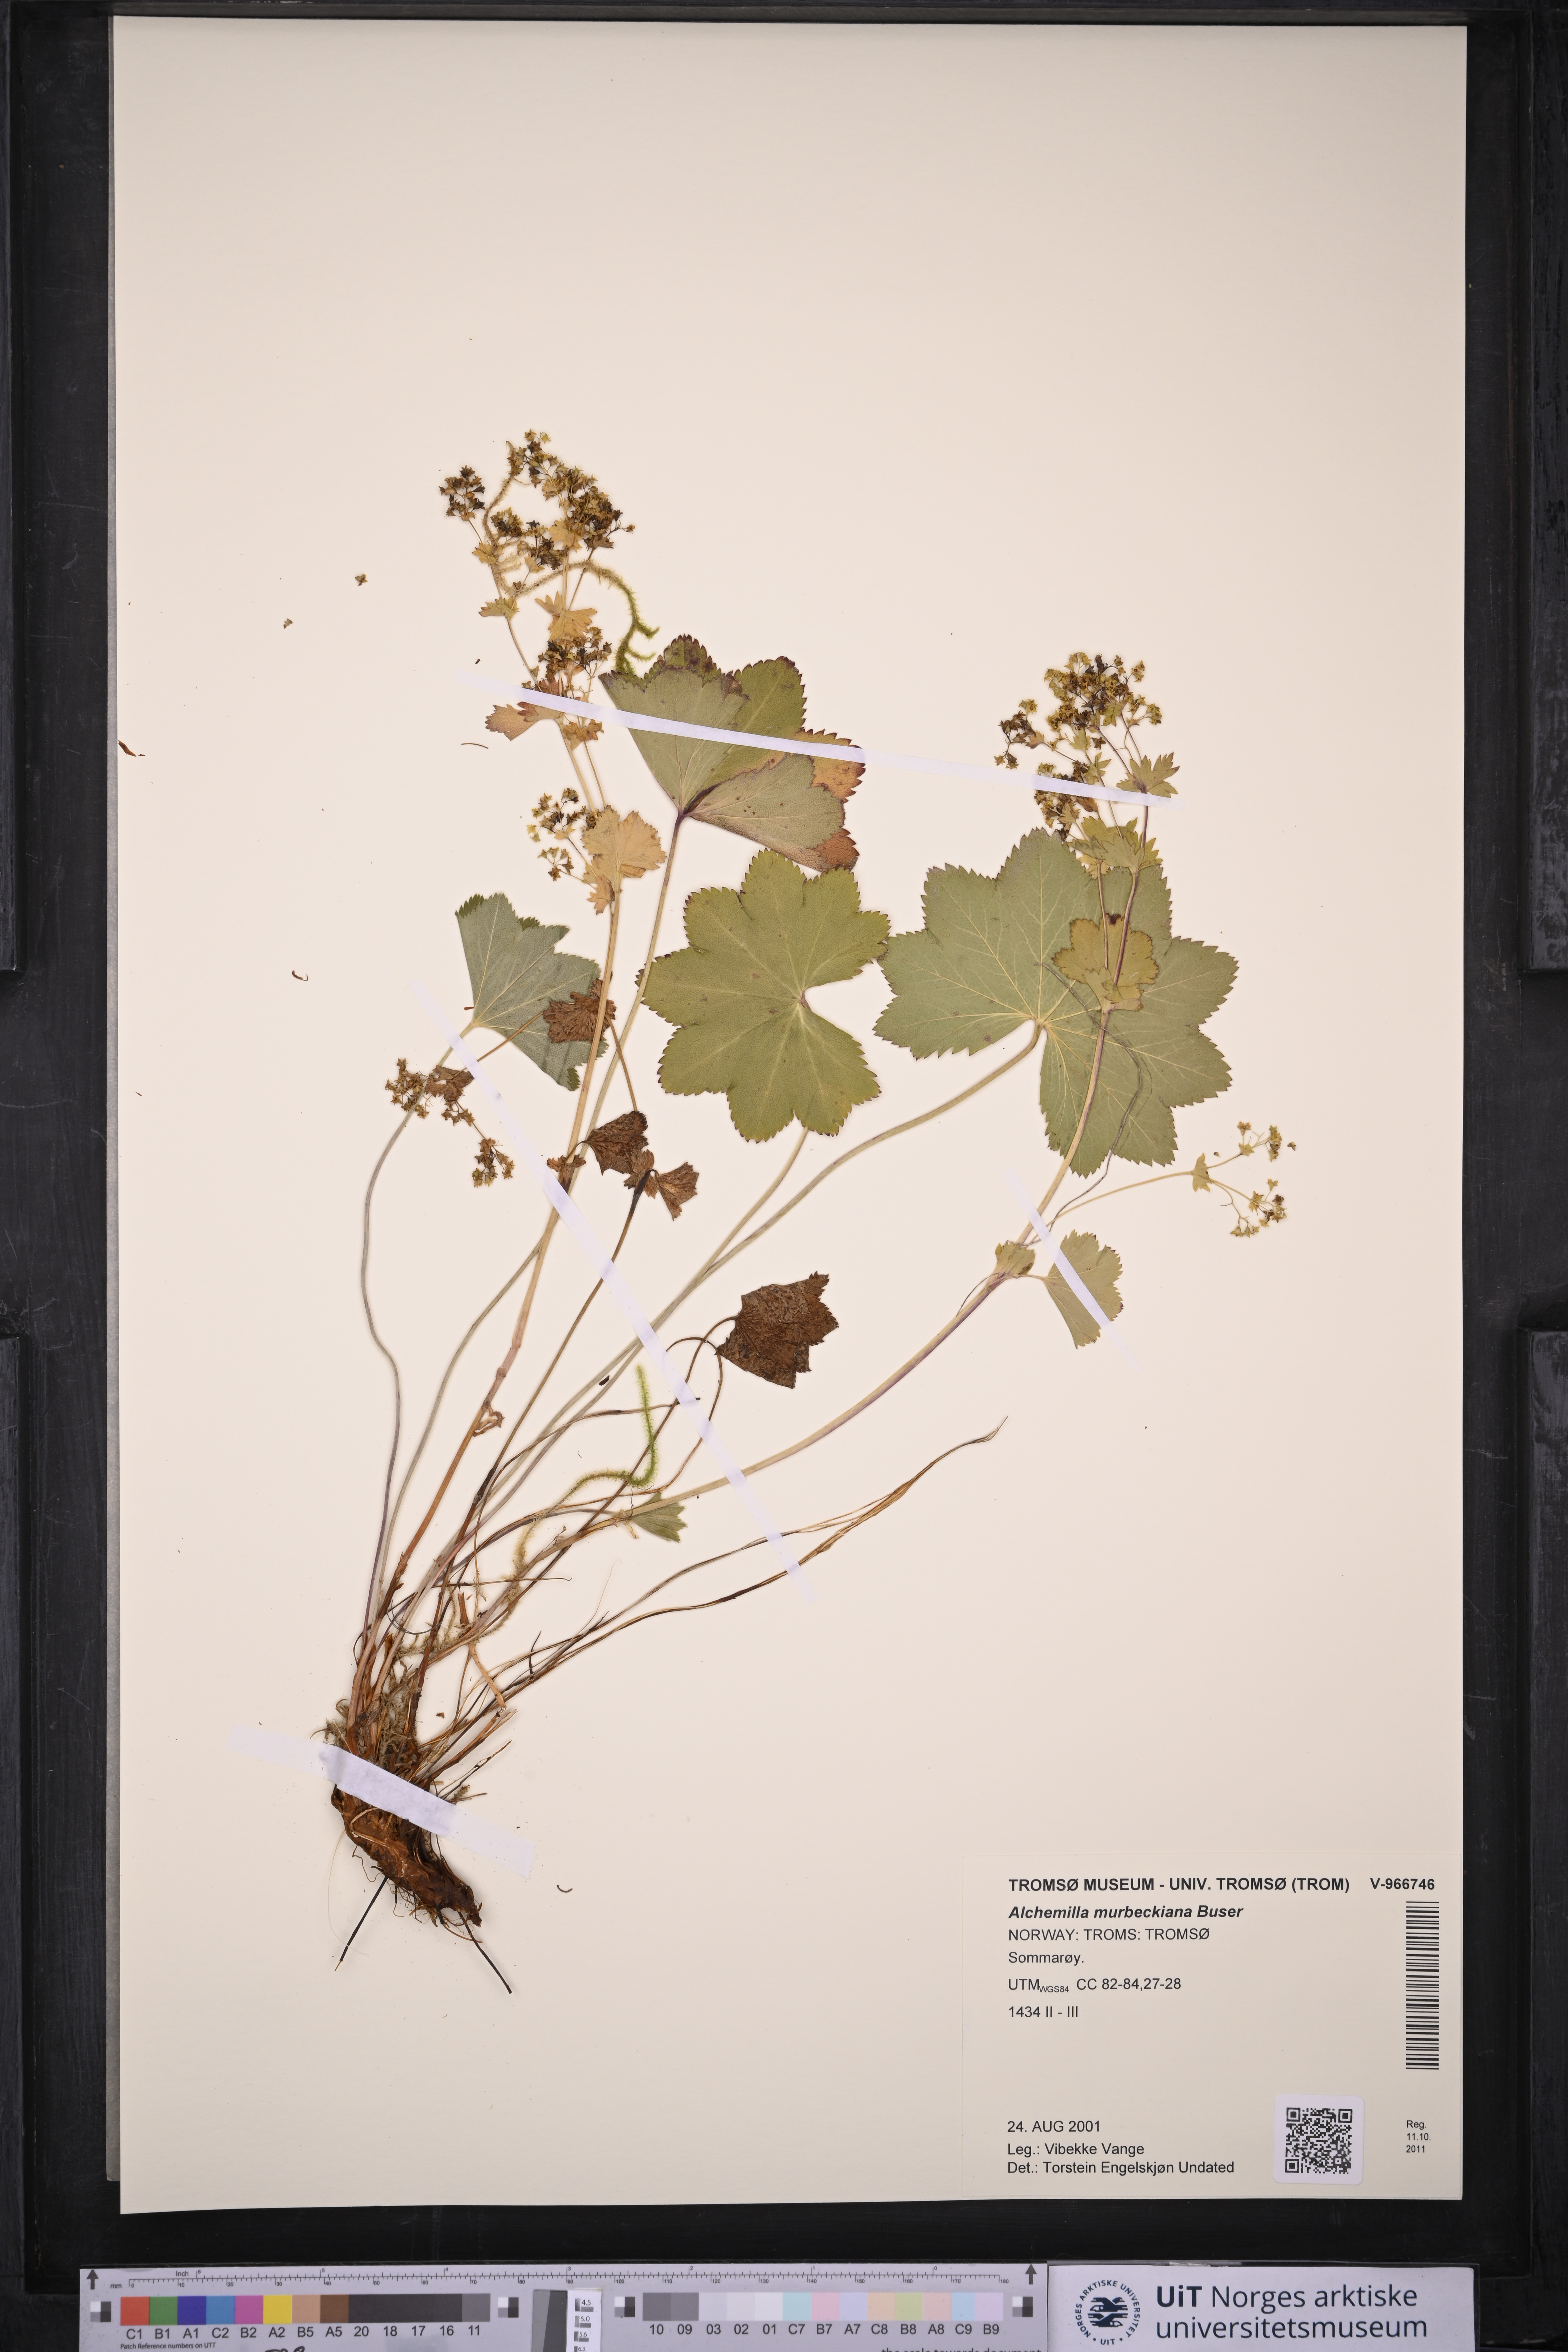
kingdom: Plantae
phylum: Tracheophyta
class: Magnoliopsida
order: Rosales
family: Rosaceae
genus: Alchemilla
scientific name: Alchemilla murbeckiana
